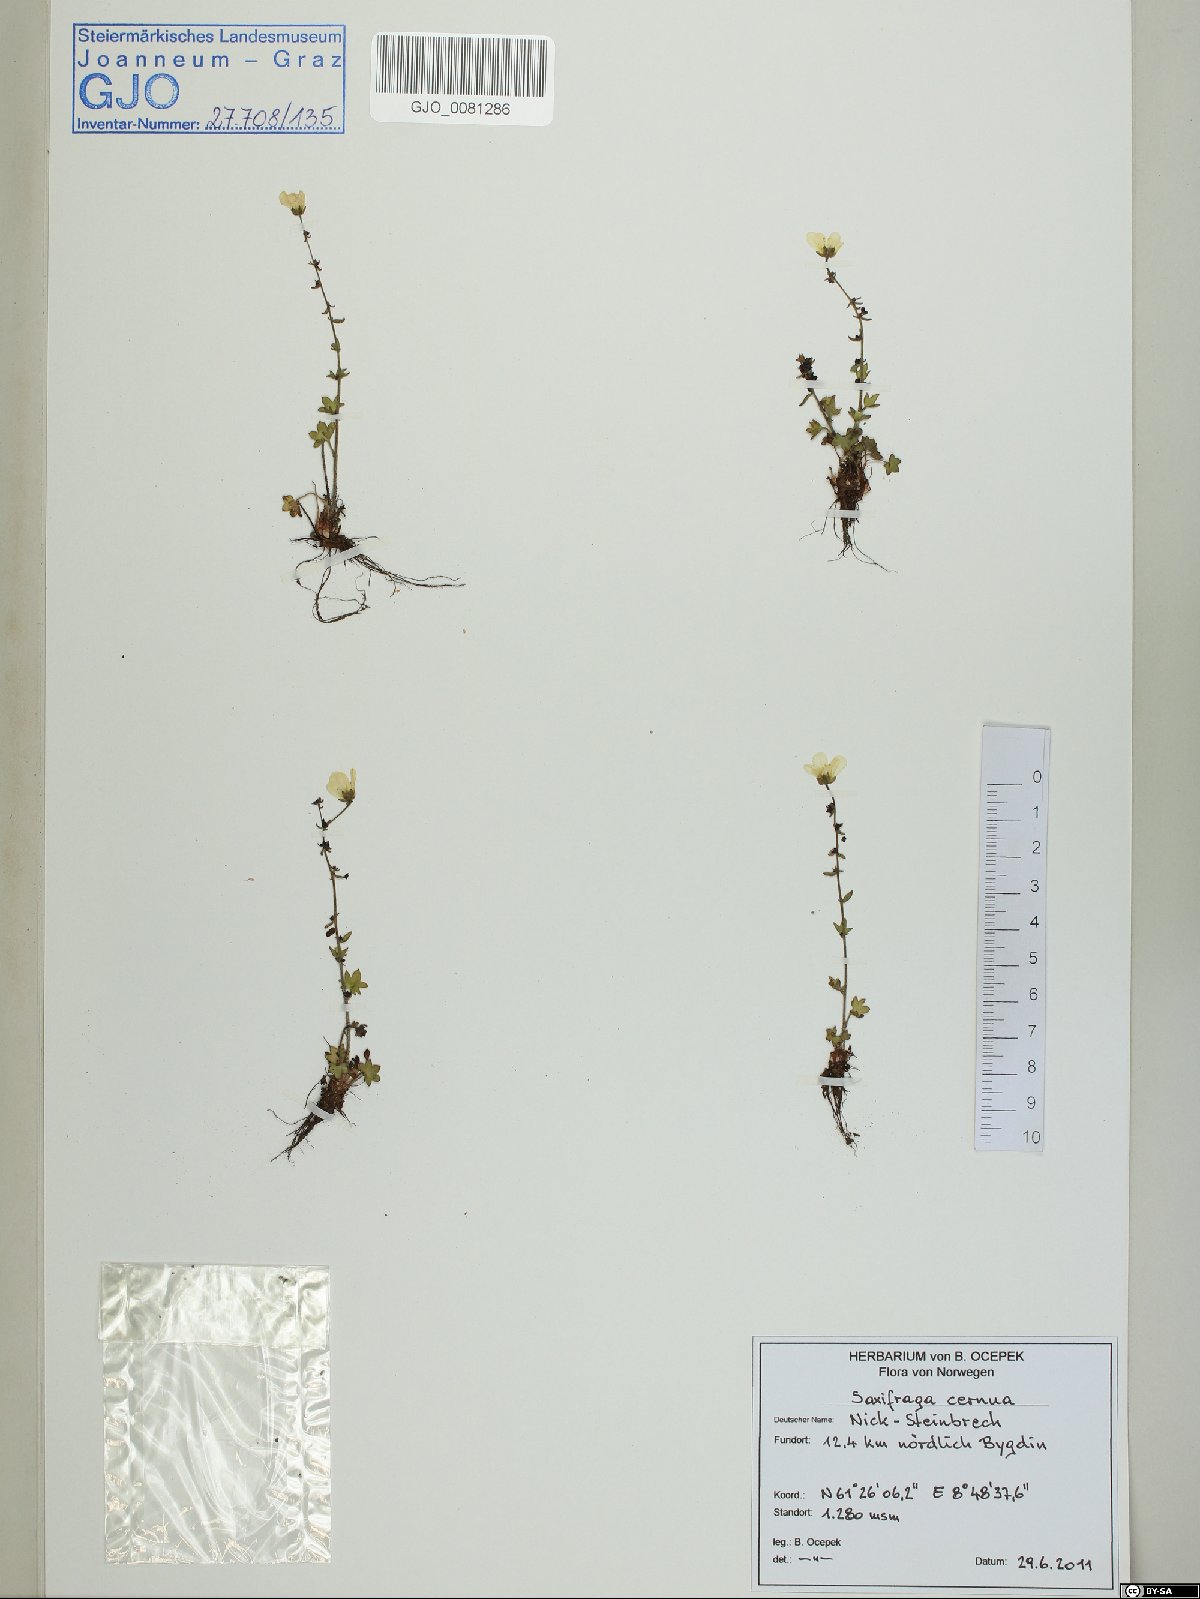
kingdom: Plantae
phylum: Tracheophyta
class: Magnoliopsida
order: Saxifragales
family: Saxifragaceae
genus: Saxifraga
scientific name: Saxifraga cernua
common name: Drooping saxifrage
